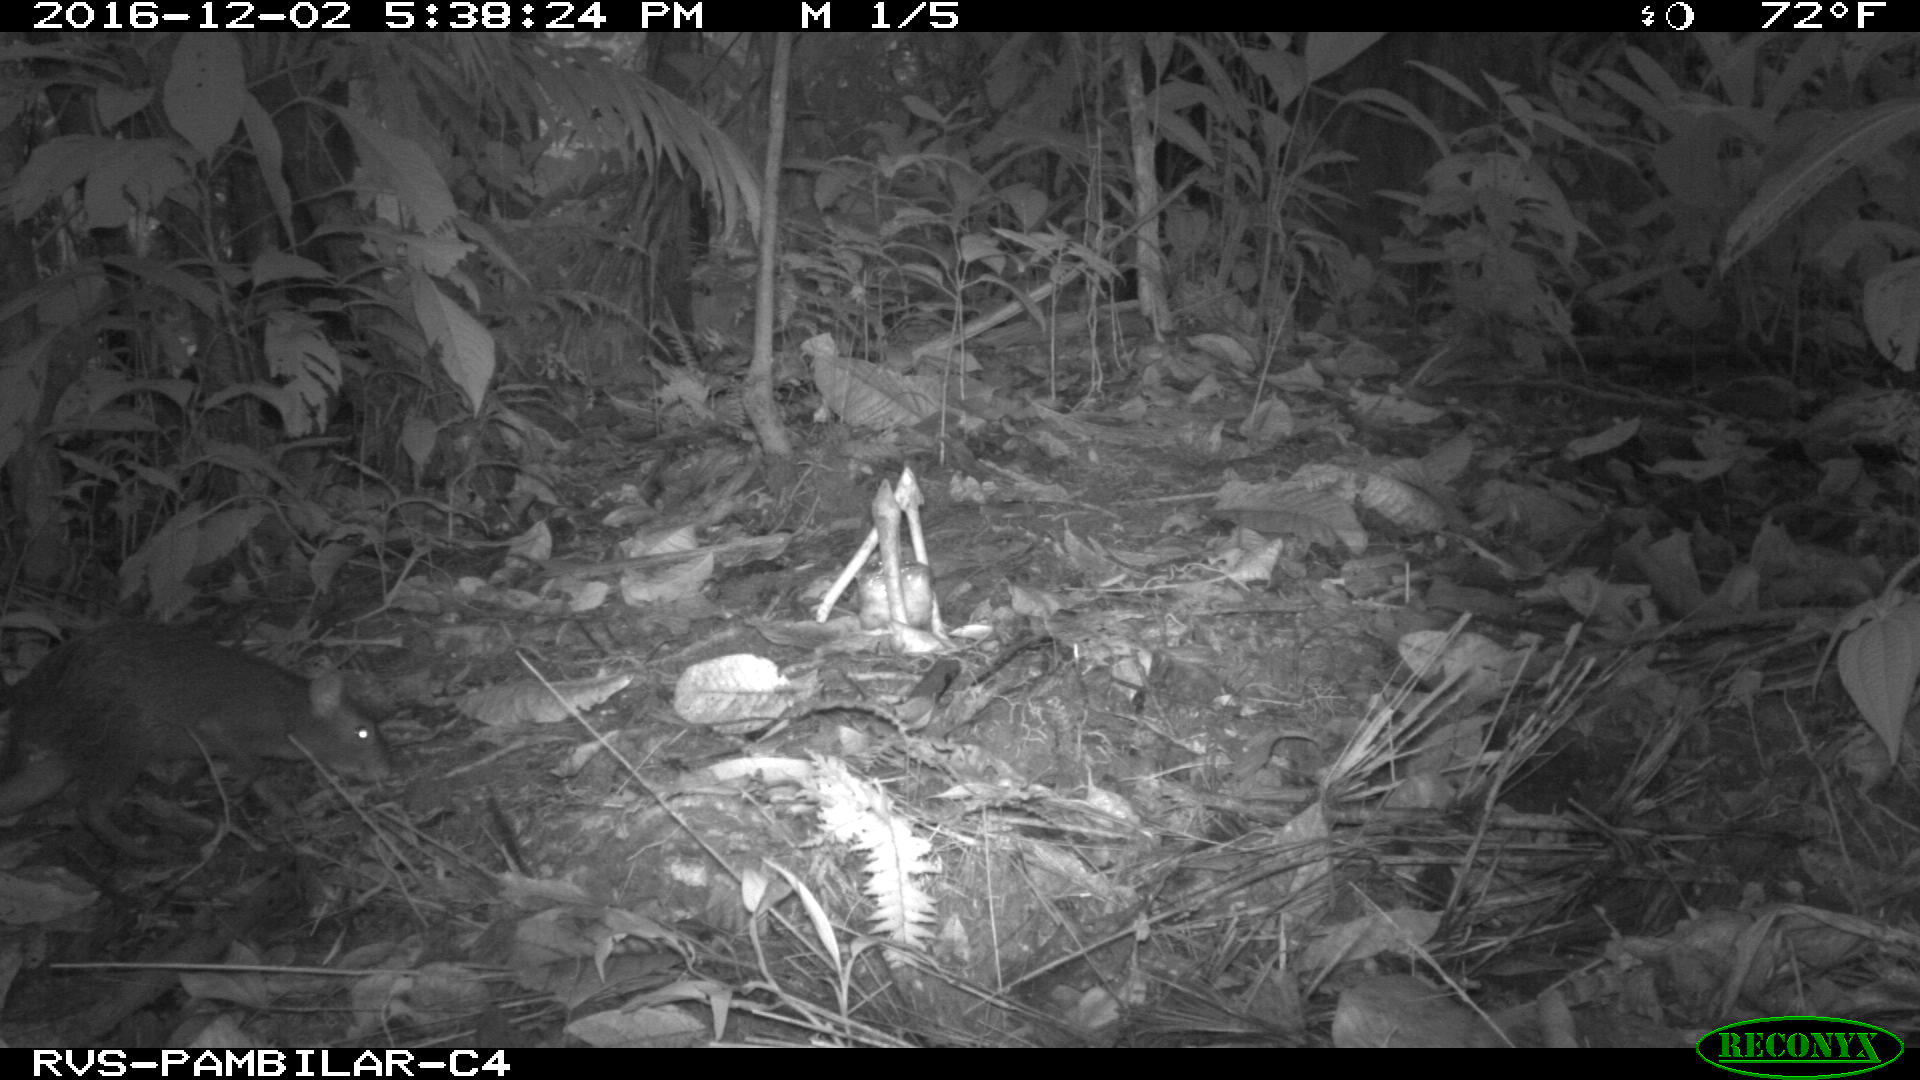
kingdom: Animalia
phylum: Chordata
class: Mammalia
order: Rodentia
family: Dasyproctidae
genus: Dasyprocta
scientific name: Dasyprocta punctata
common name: Central american agouti
